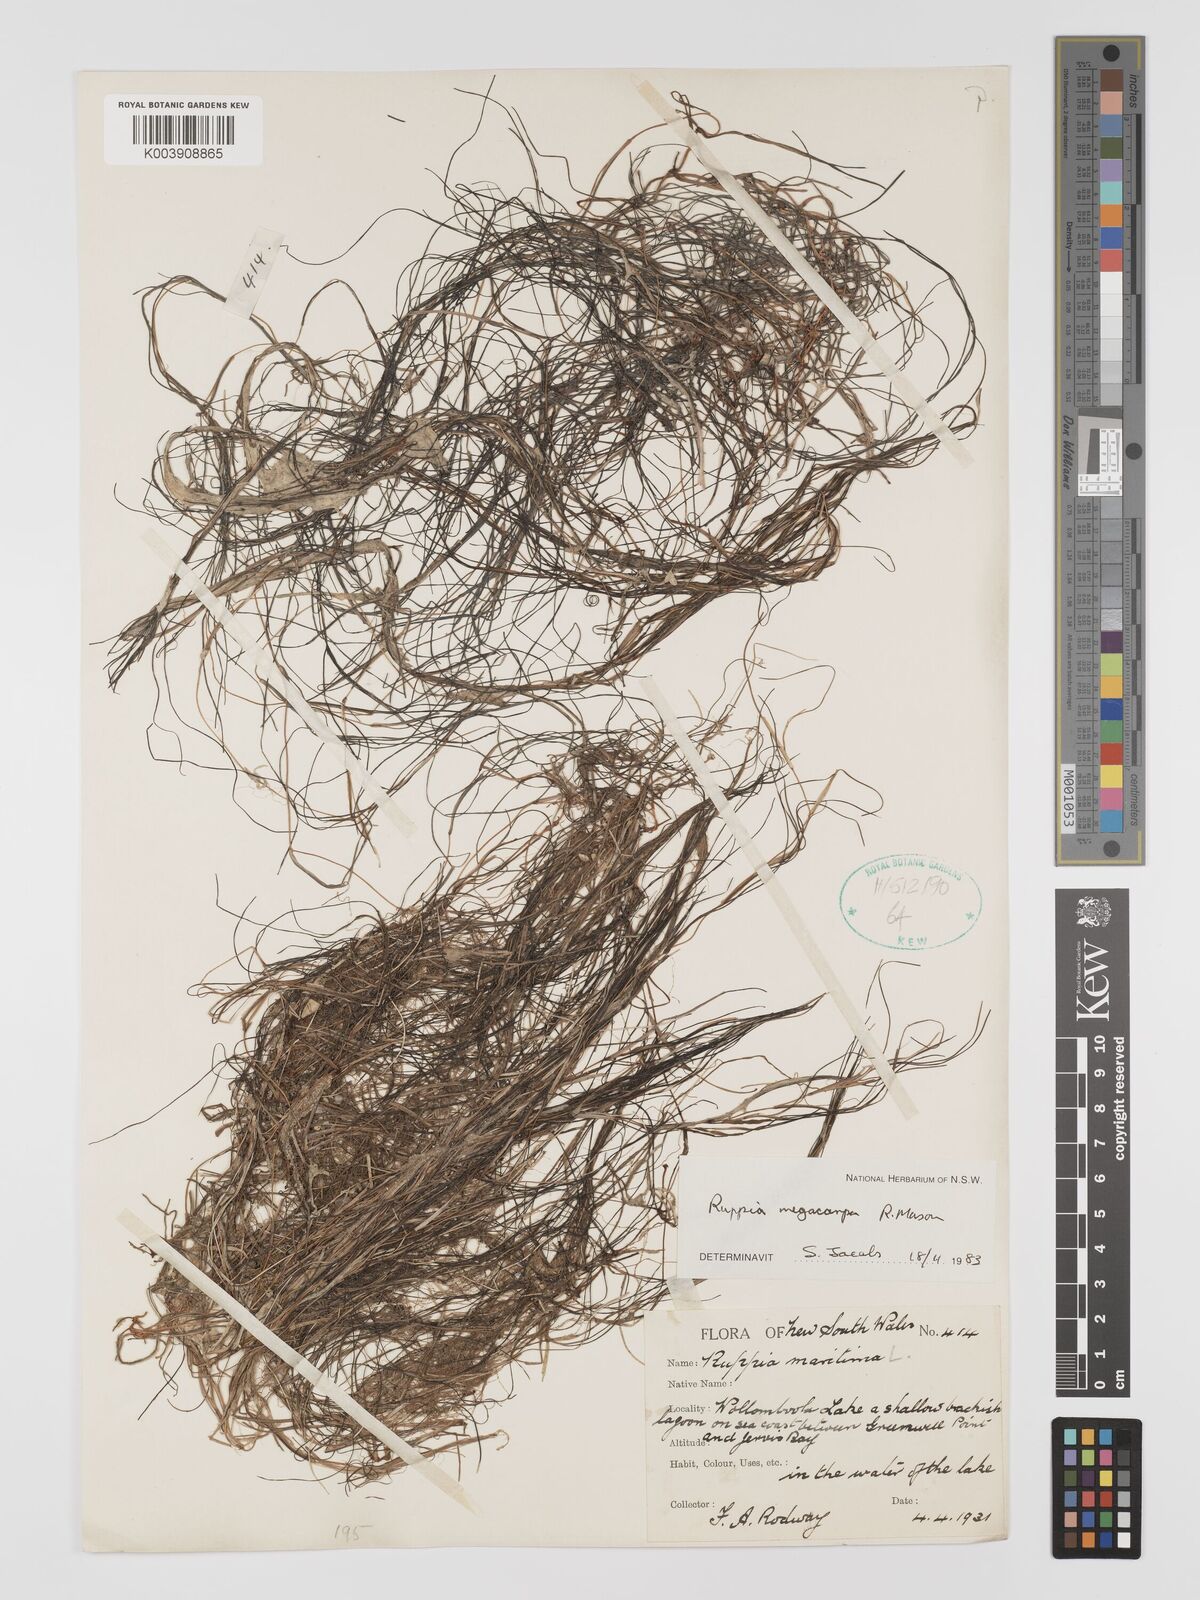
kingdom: Plantae
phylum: Tracheophyta
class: Liliopsida
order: Alismatales
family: Ruppiaceae
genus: Ruppia
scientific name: Ruppia megacarpa
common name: Large-fruit seatassel
